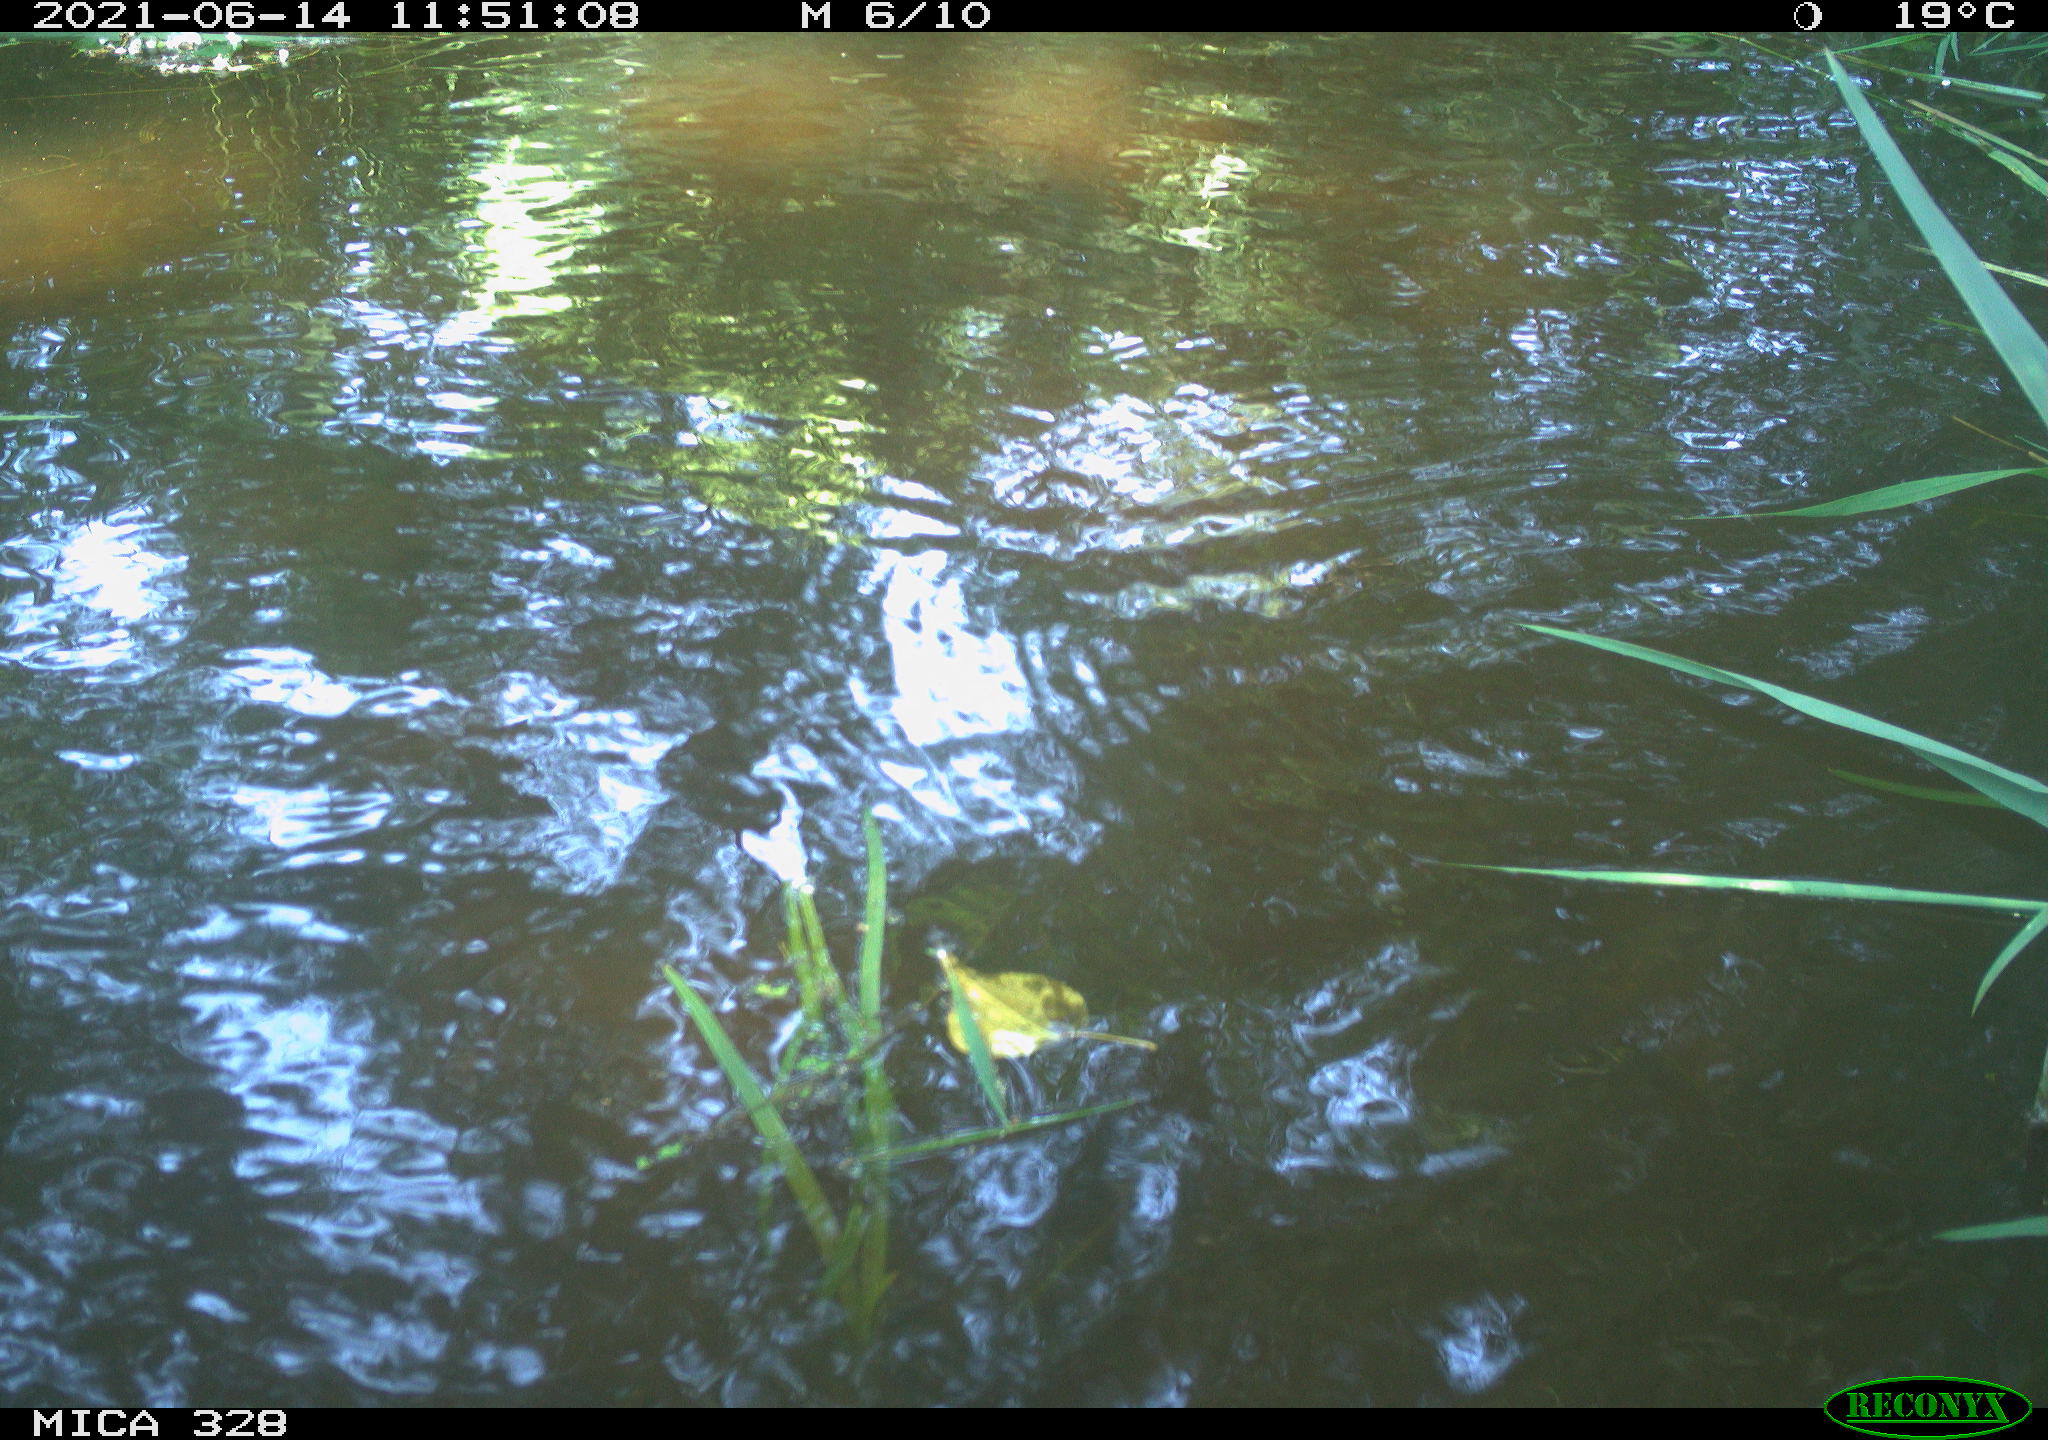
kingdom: Animalia
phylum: Chordata
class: Aves
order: Anseriformes
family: Anatidae
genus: Aix
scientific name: Aix galericulata
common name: Mandarin duck
